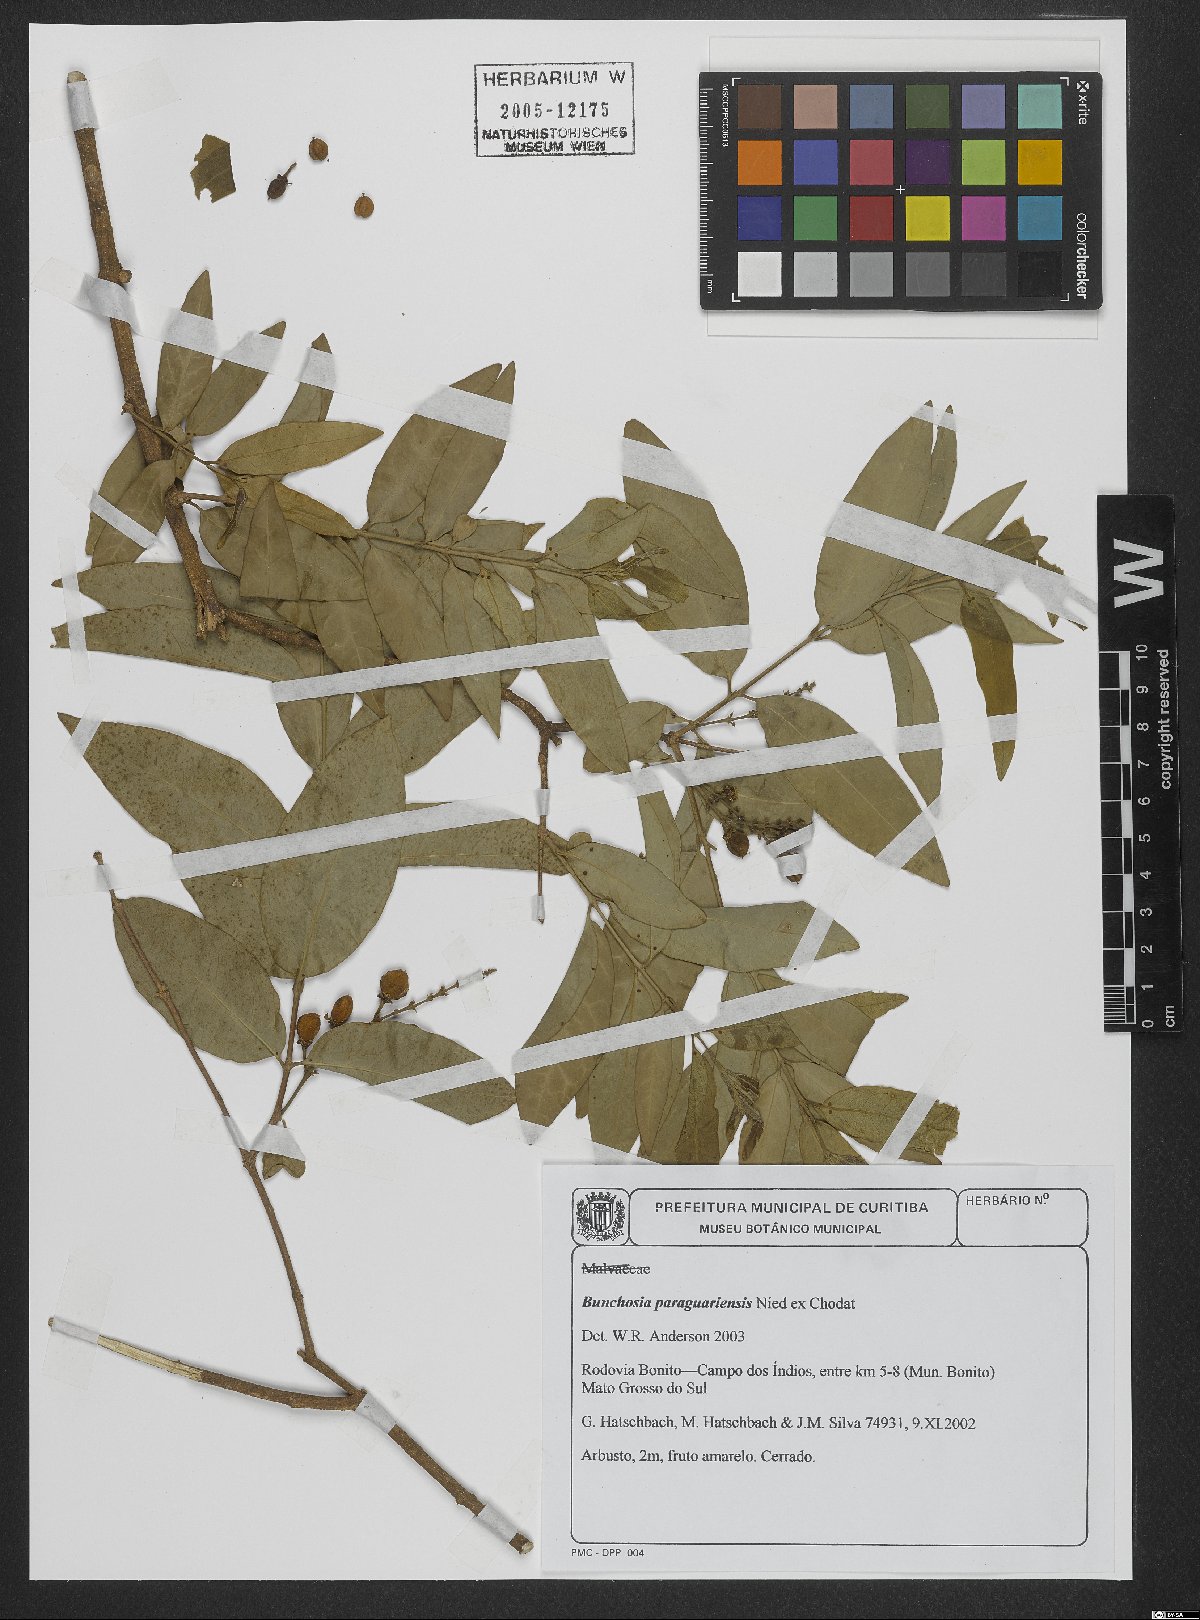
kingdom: Plantae
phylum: Tracheophyta
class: Magnoliopsida
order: Malpighiales
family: Malpighiaceae
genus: Bunchosia
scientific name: Bunchosia paraguariensis
